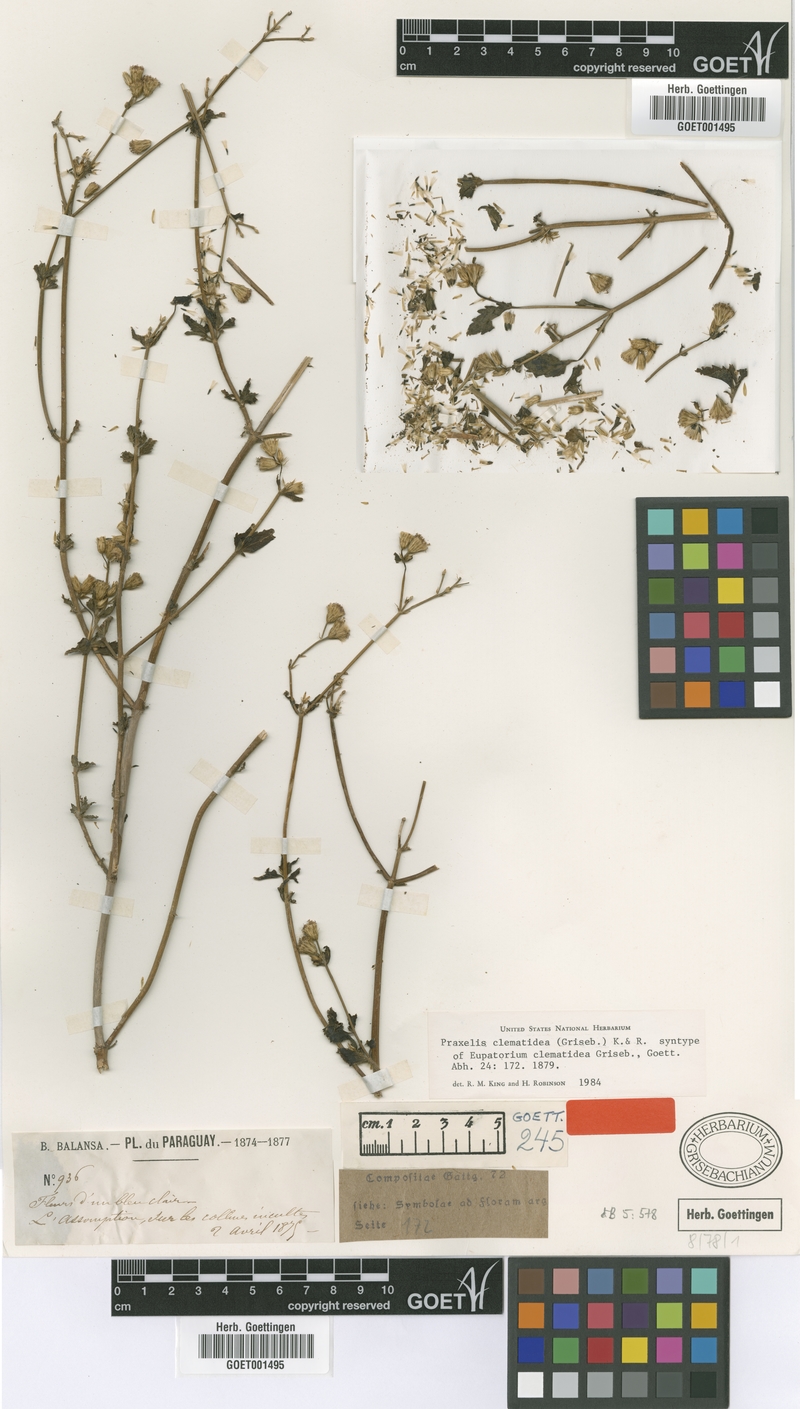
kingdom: Plantae
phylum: Tracheophyta
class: Magnoliopsida
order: Asterales
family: Asteraceae
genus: Praxelis
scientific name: Praxelis clematidea
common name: Praxelis
